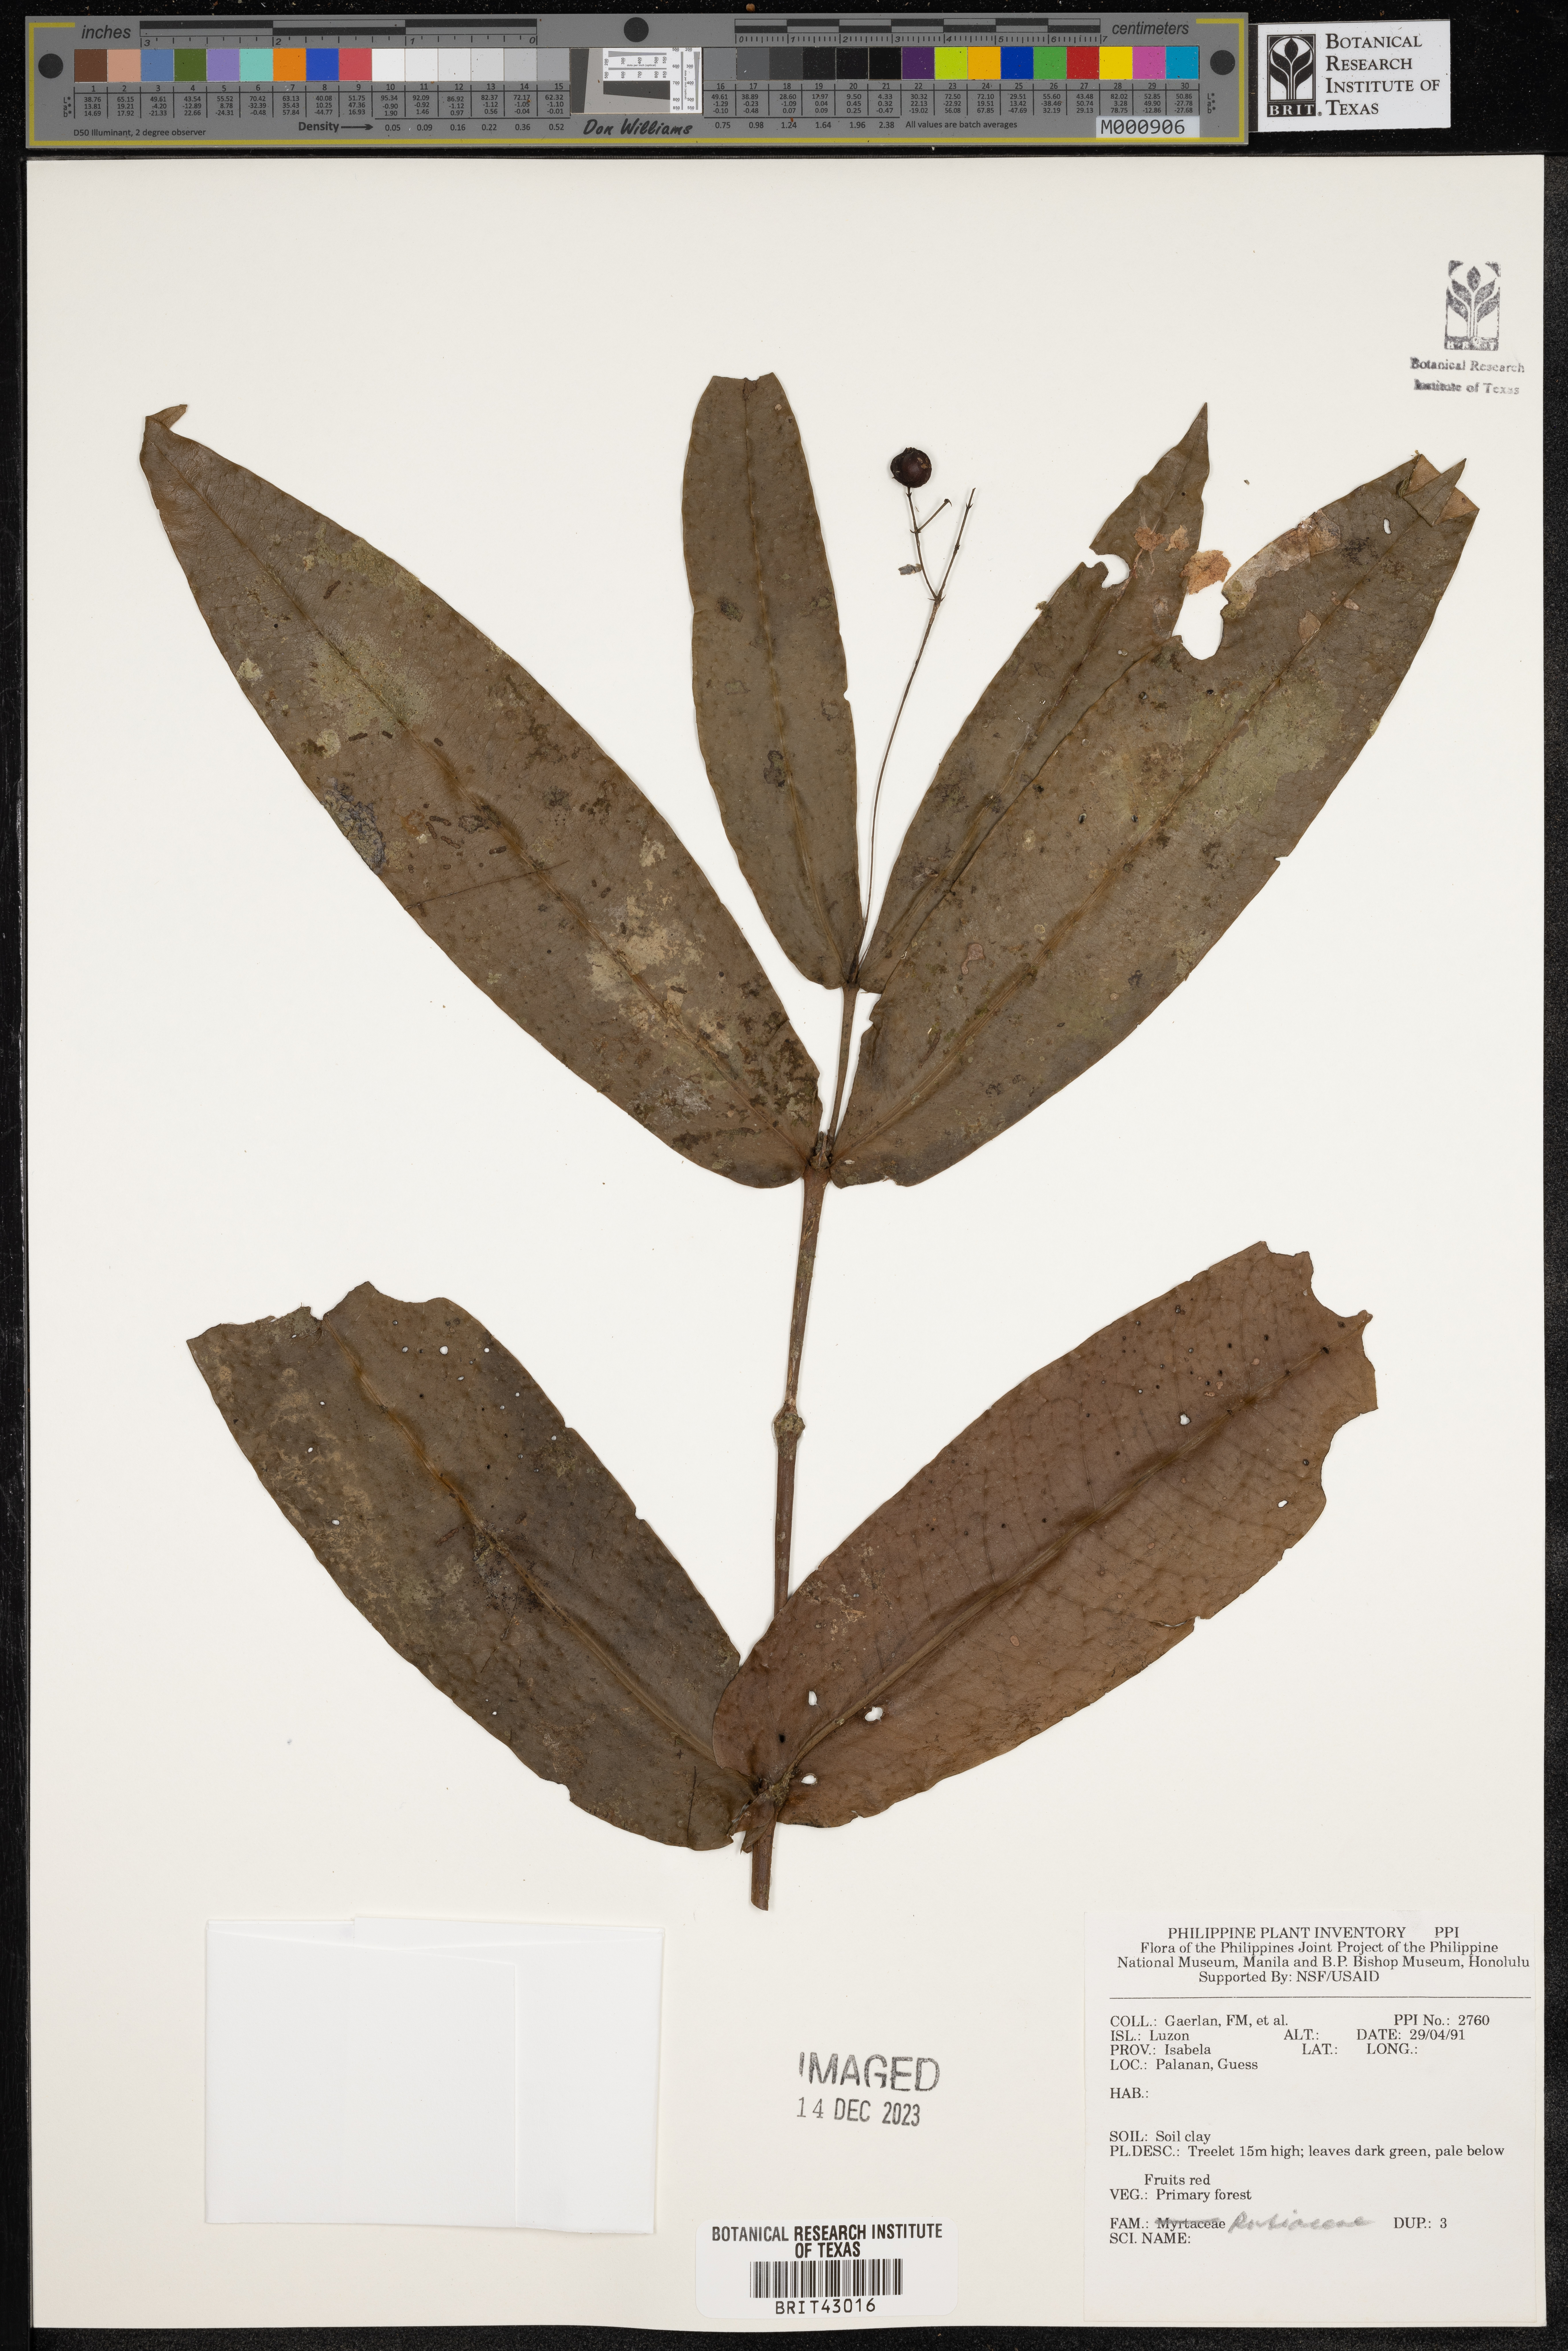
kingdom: Plantae
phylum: Tracheophyta
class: Magnoliopsida
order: Gentianales
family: Rubiaceae
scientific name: Rubiaceae
